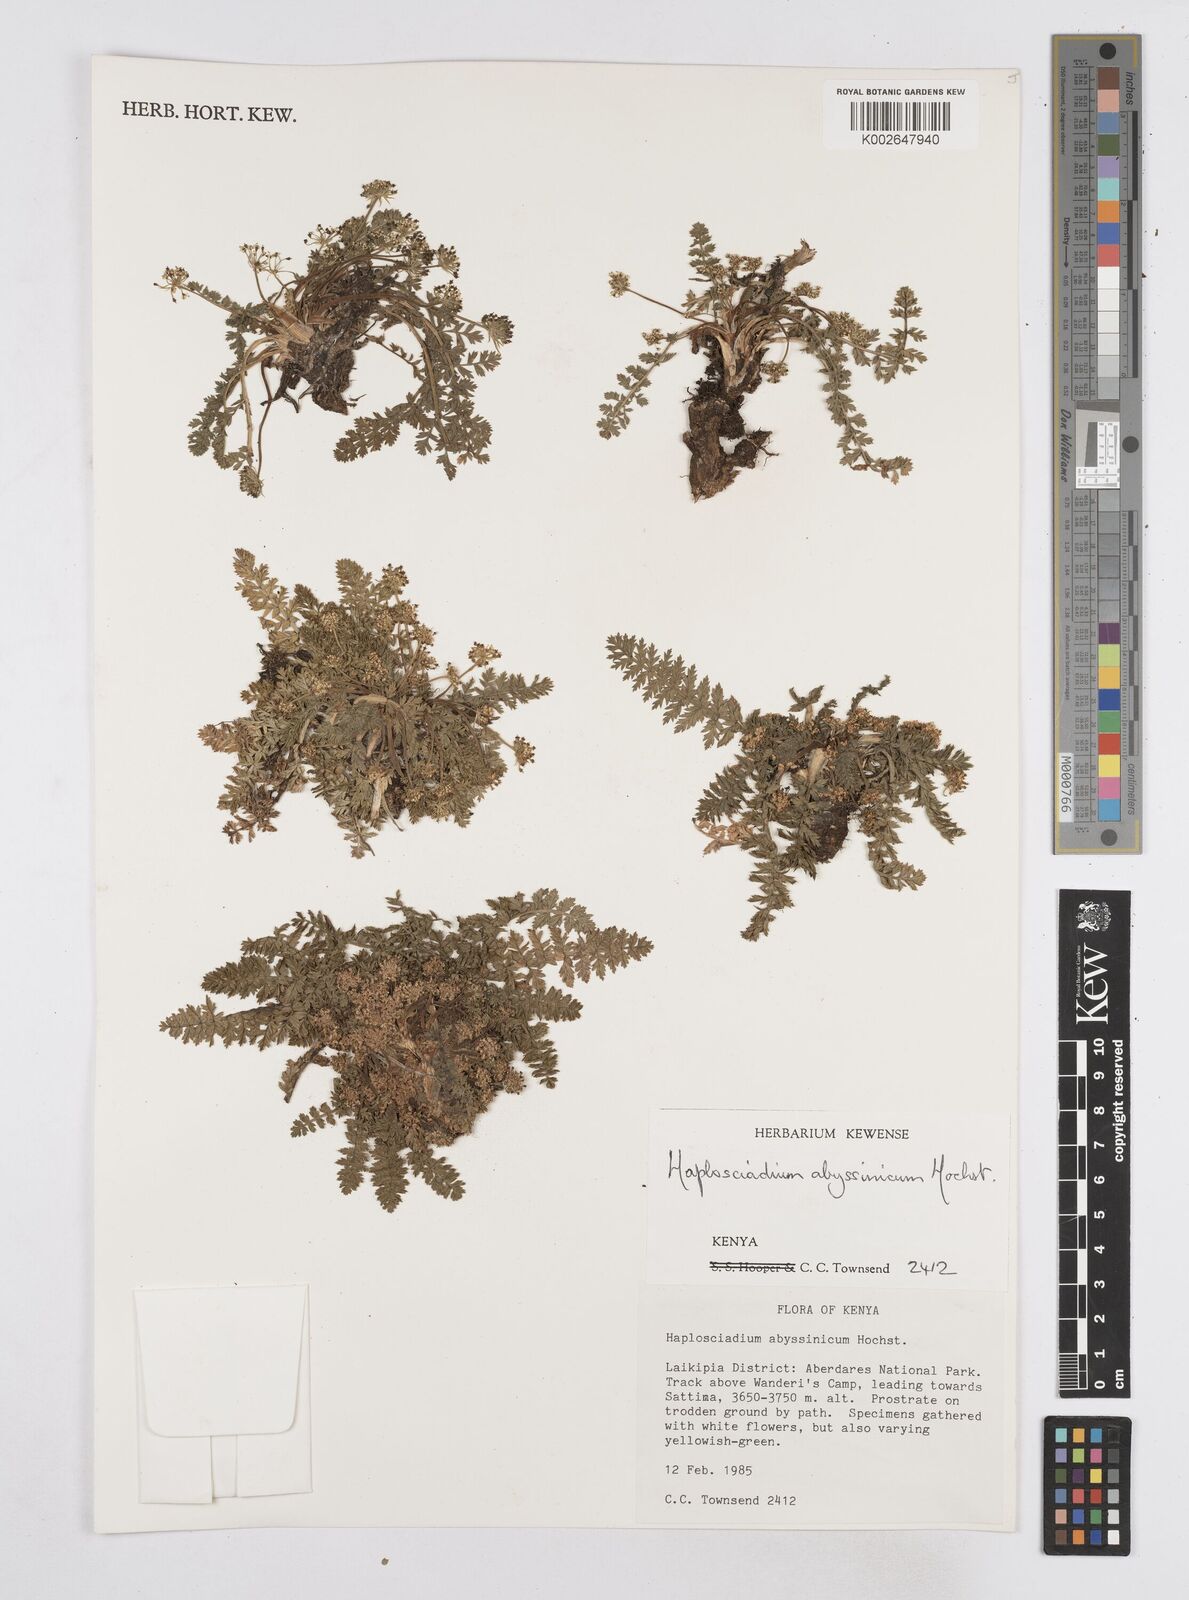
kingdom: Plantae
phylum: Tracheophyta
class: Magnoliopsida
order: Apiales
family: Apiaceae
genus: Haplosciadium
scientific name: Haplosciadium abyssinicum
